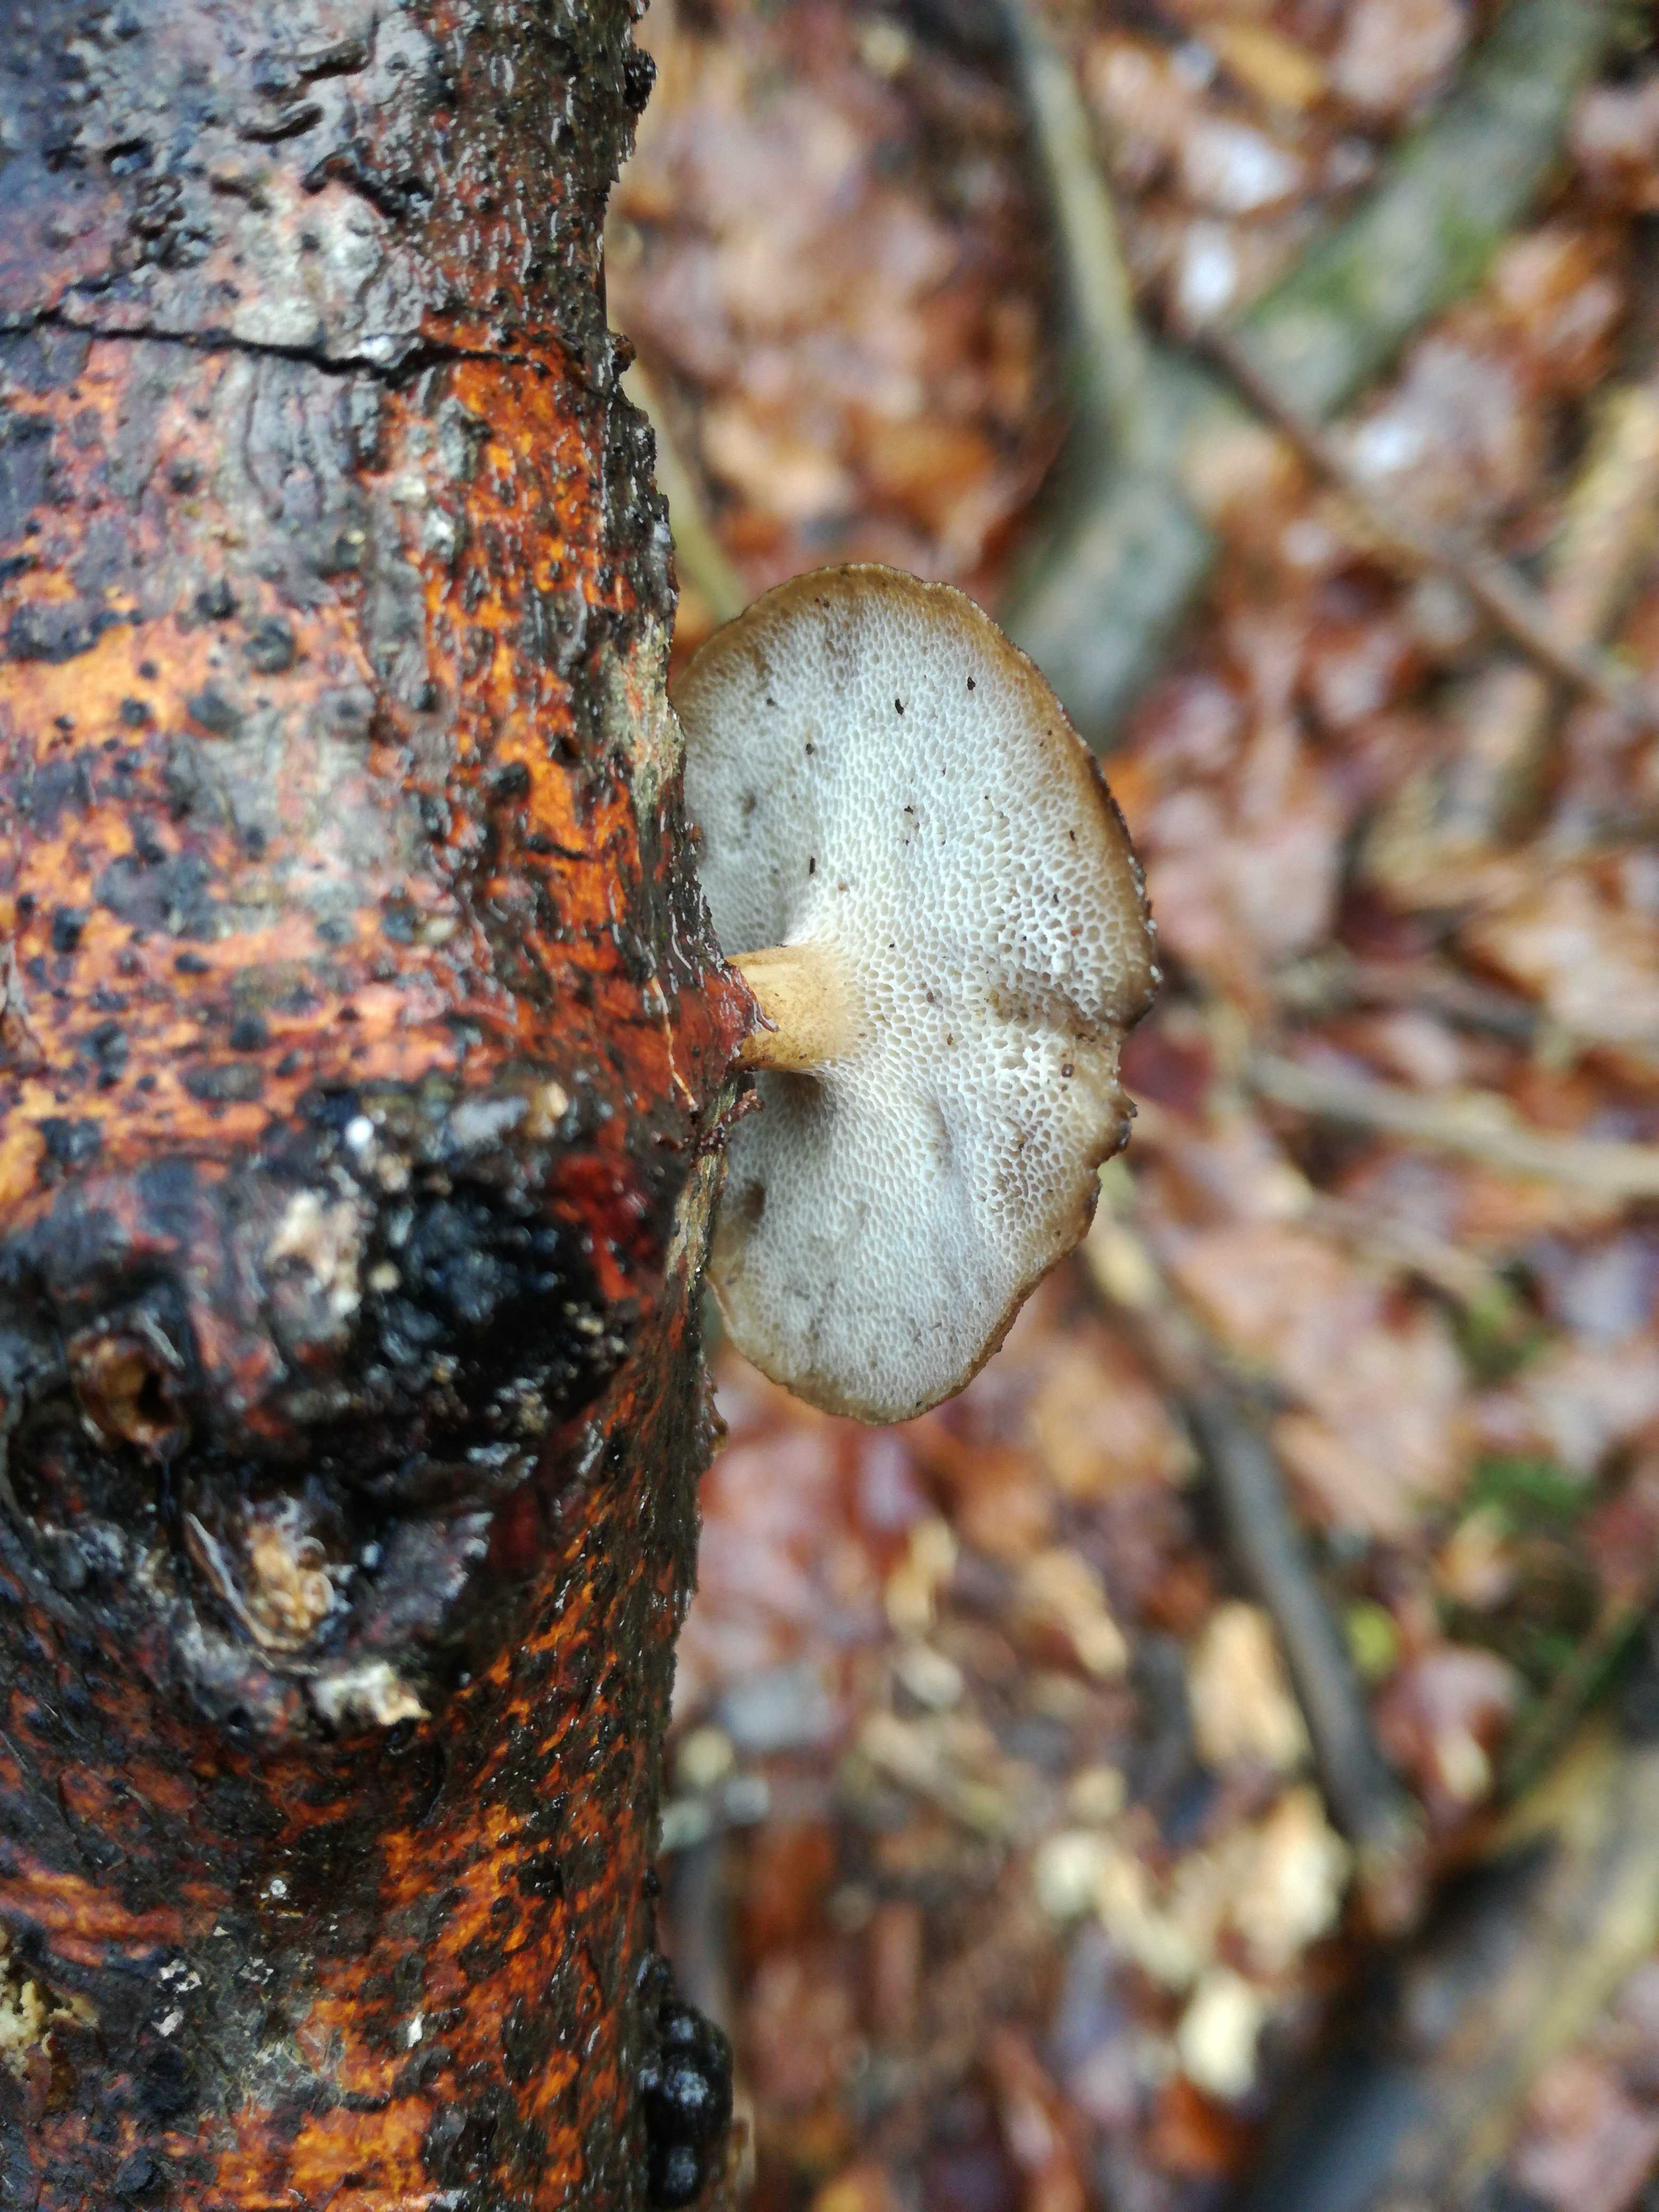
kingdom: Fungi
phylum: Basidiomycota
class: Agaricomycetes
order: Polyporales
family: Polyporaceae
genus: Lentinus
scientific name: Lentinus brumalis
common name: vinter-stilkporesvamp
